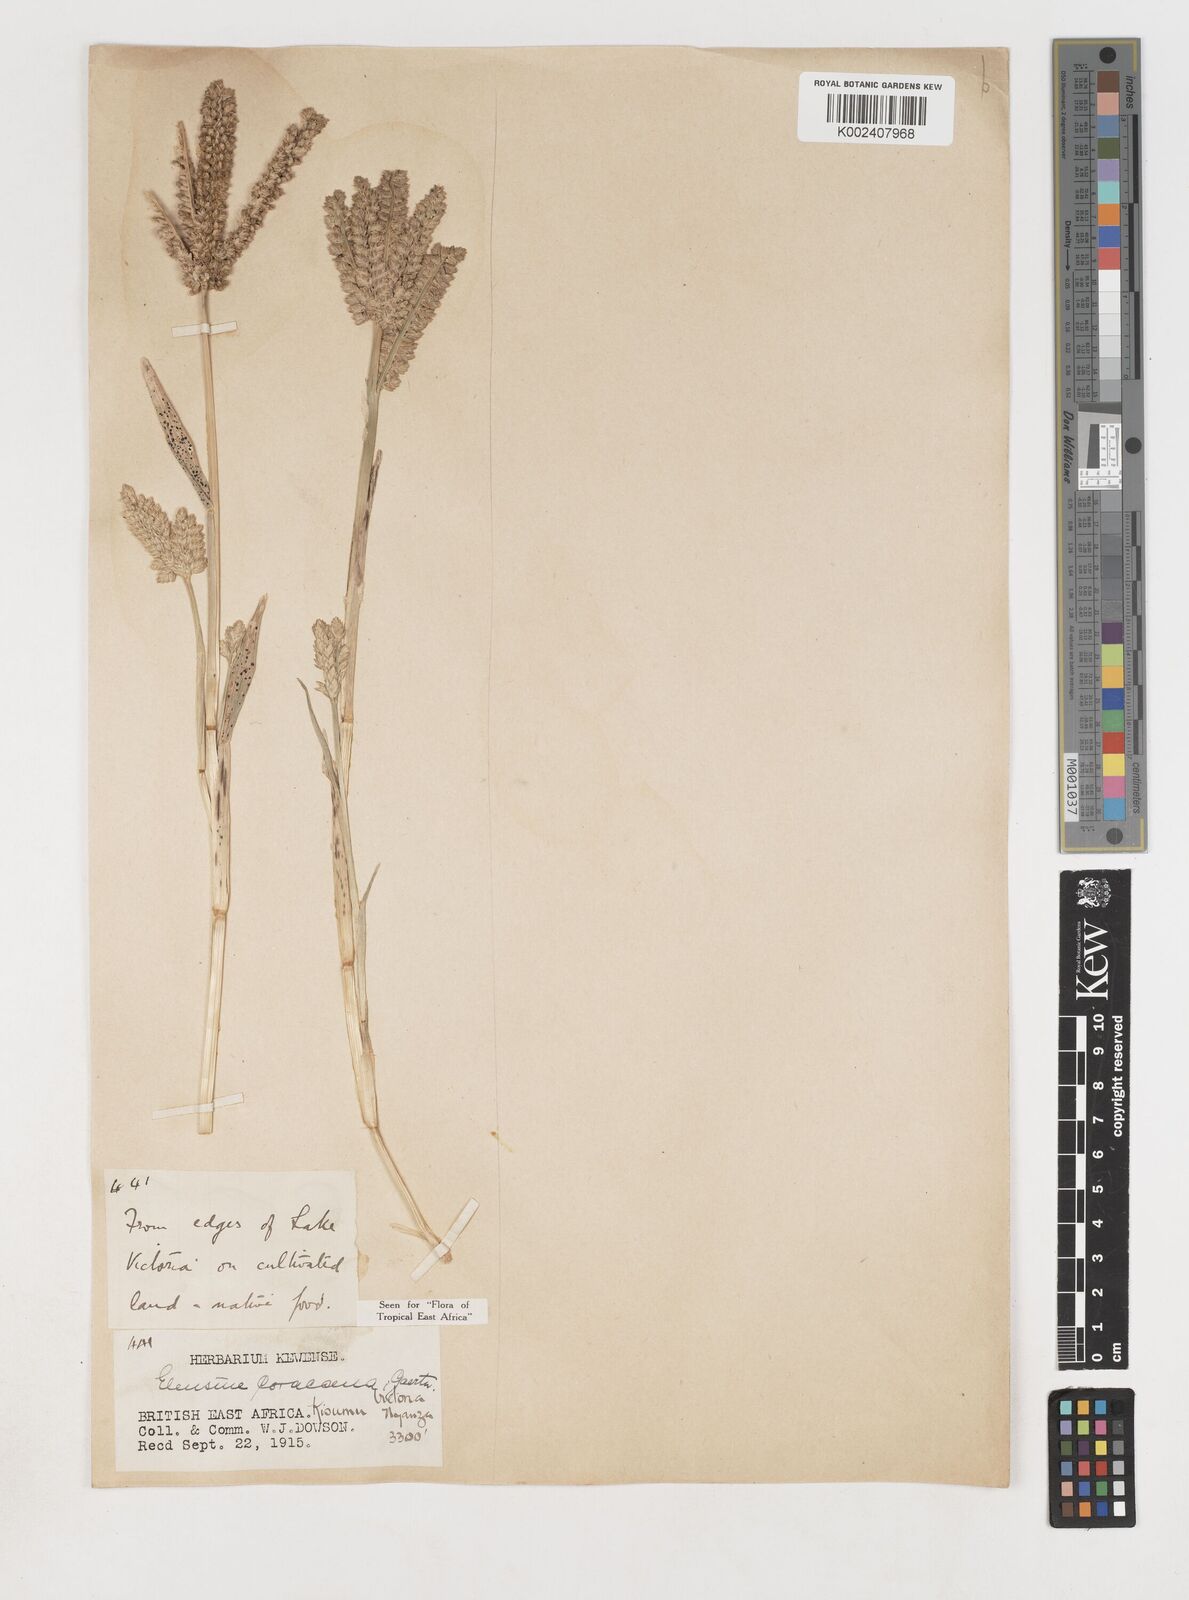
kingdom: Plantae
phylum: Tracheophyta
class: Liliopsida
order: Poales
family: Poaceae
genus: Eleusine
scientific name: Eleusine coracana
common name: Finger millet
